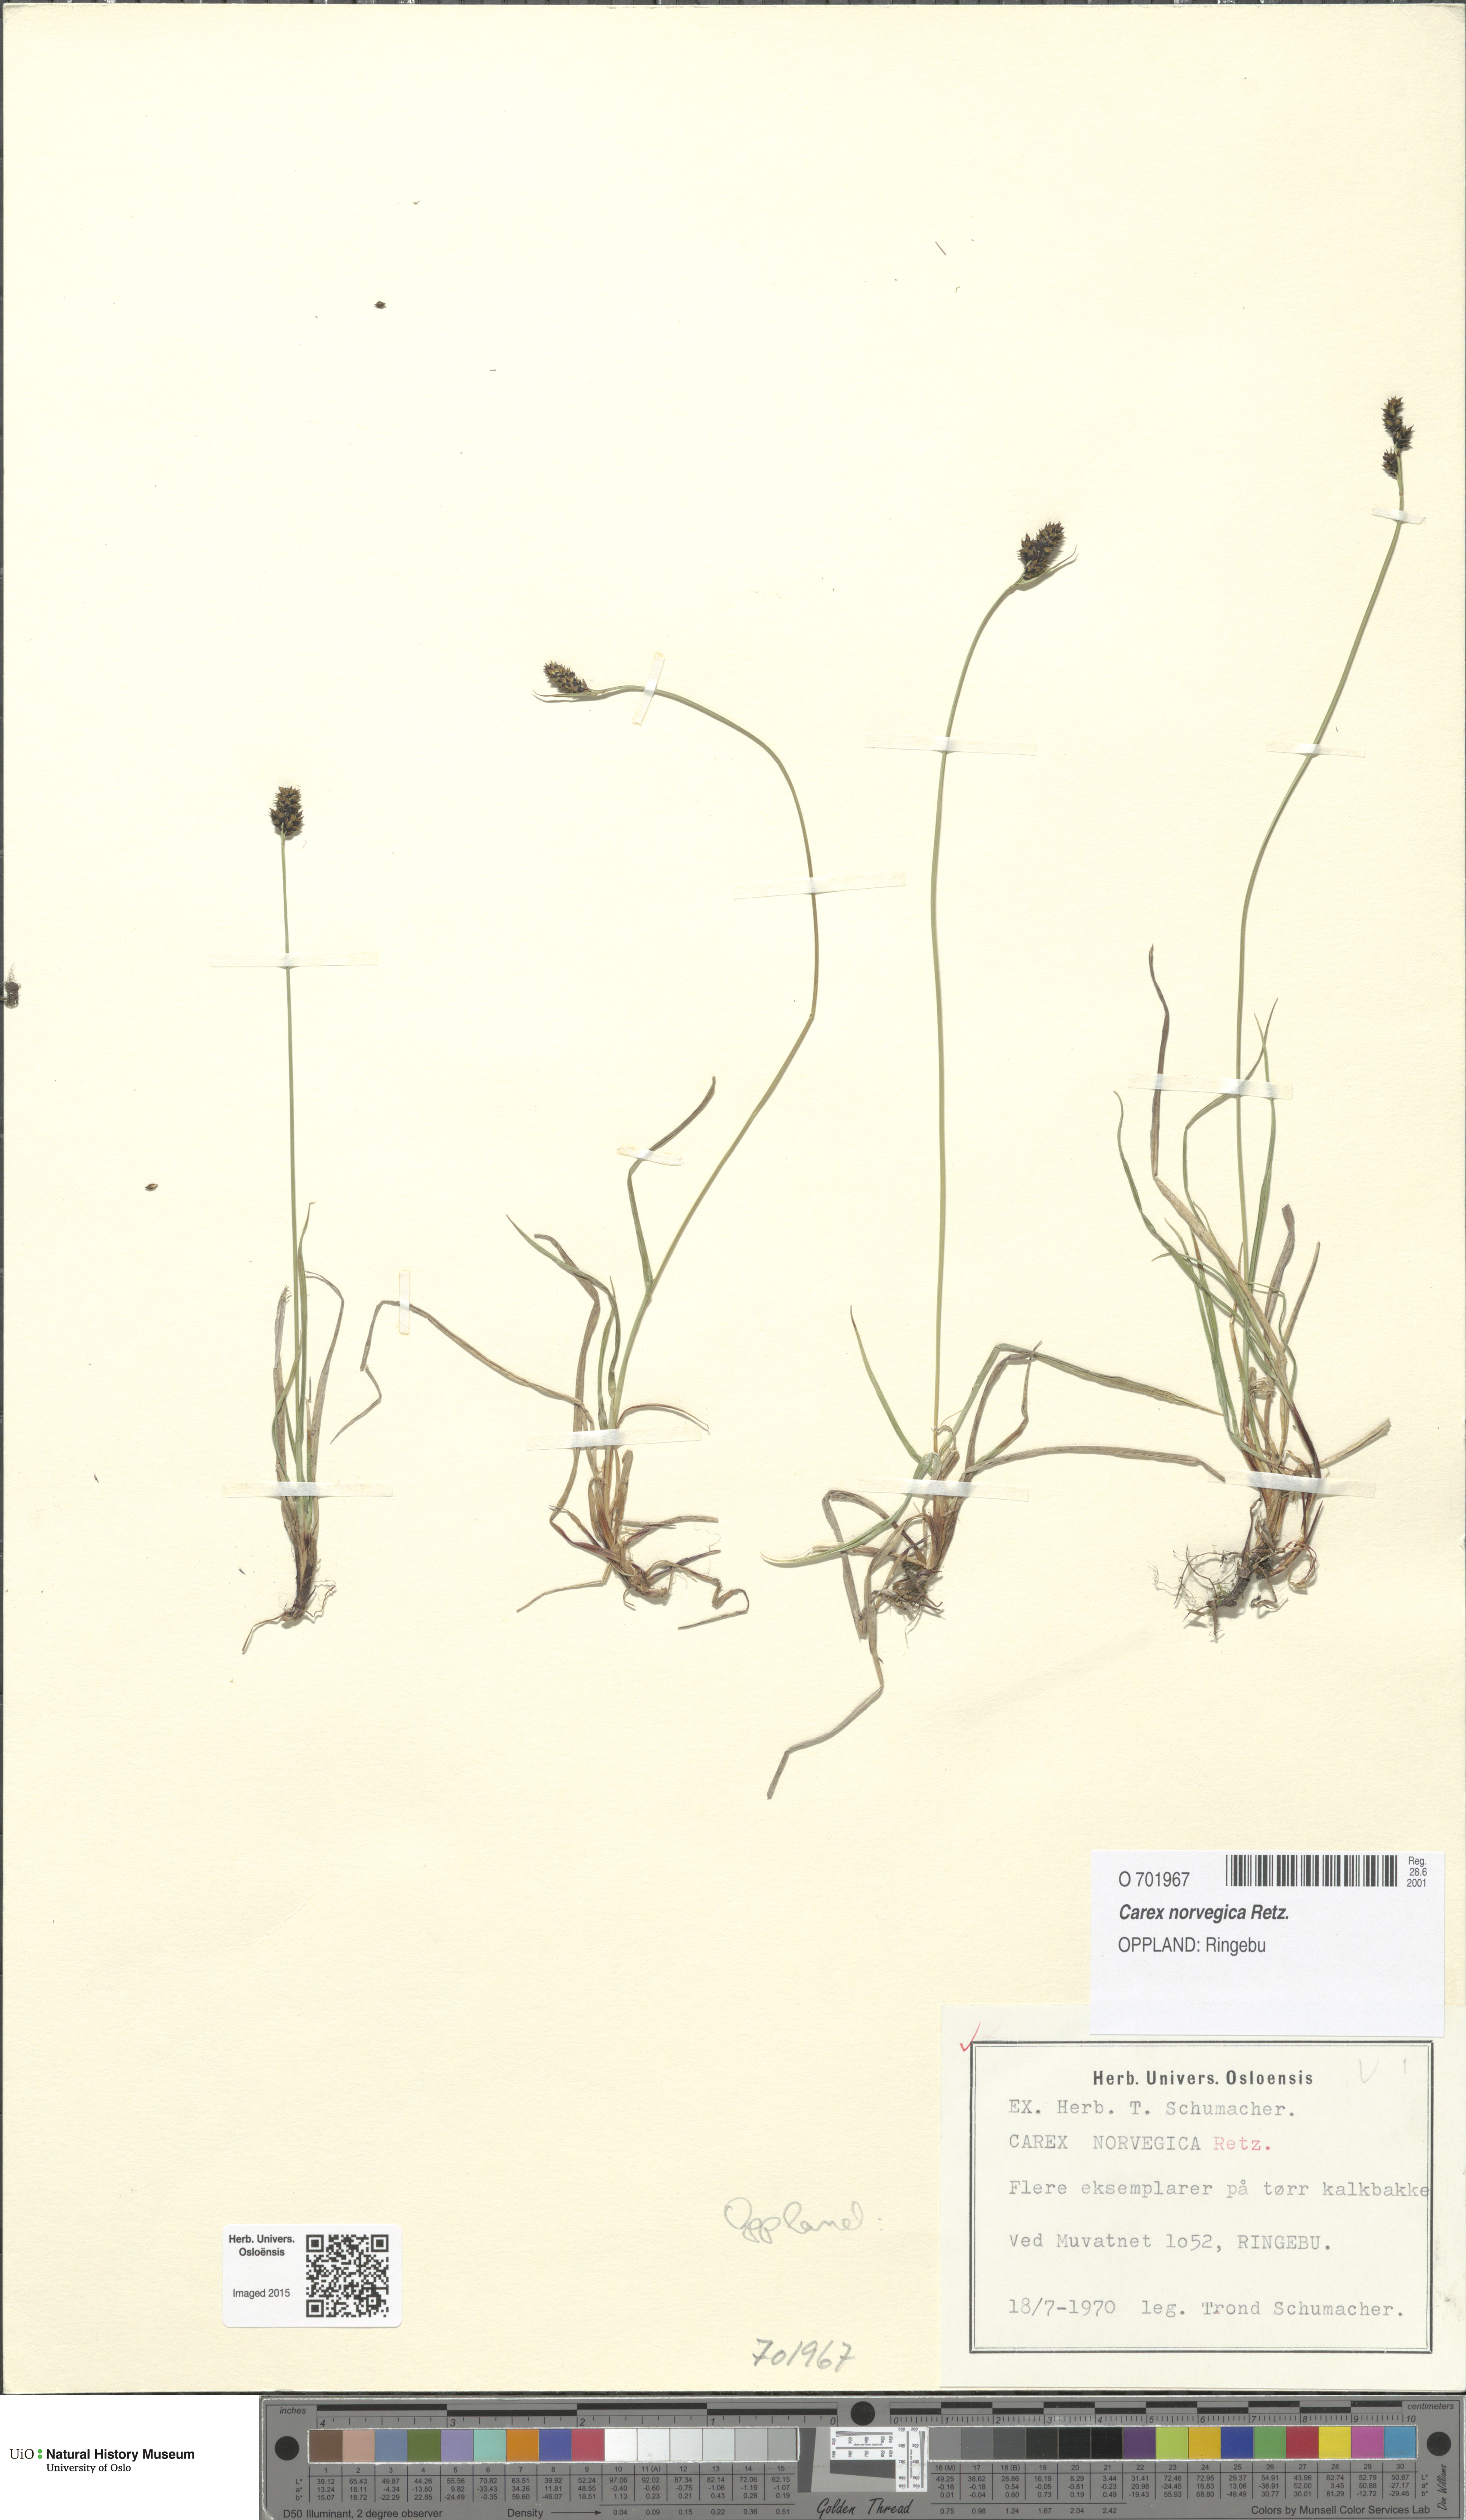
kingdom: Plantae
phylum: Tracheophyta
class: Liliopsida
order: Poales
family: Cyperaceae
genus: Carex
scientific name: Carex norvegica
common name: Close-headed alpine-sedge
